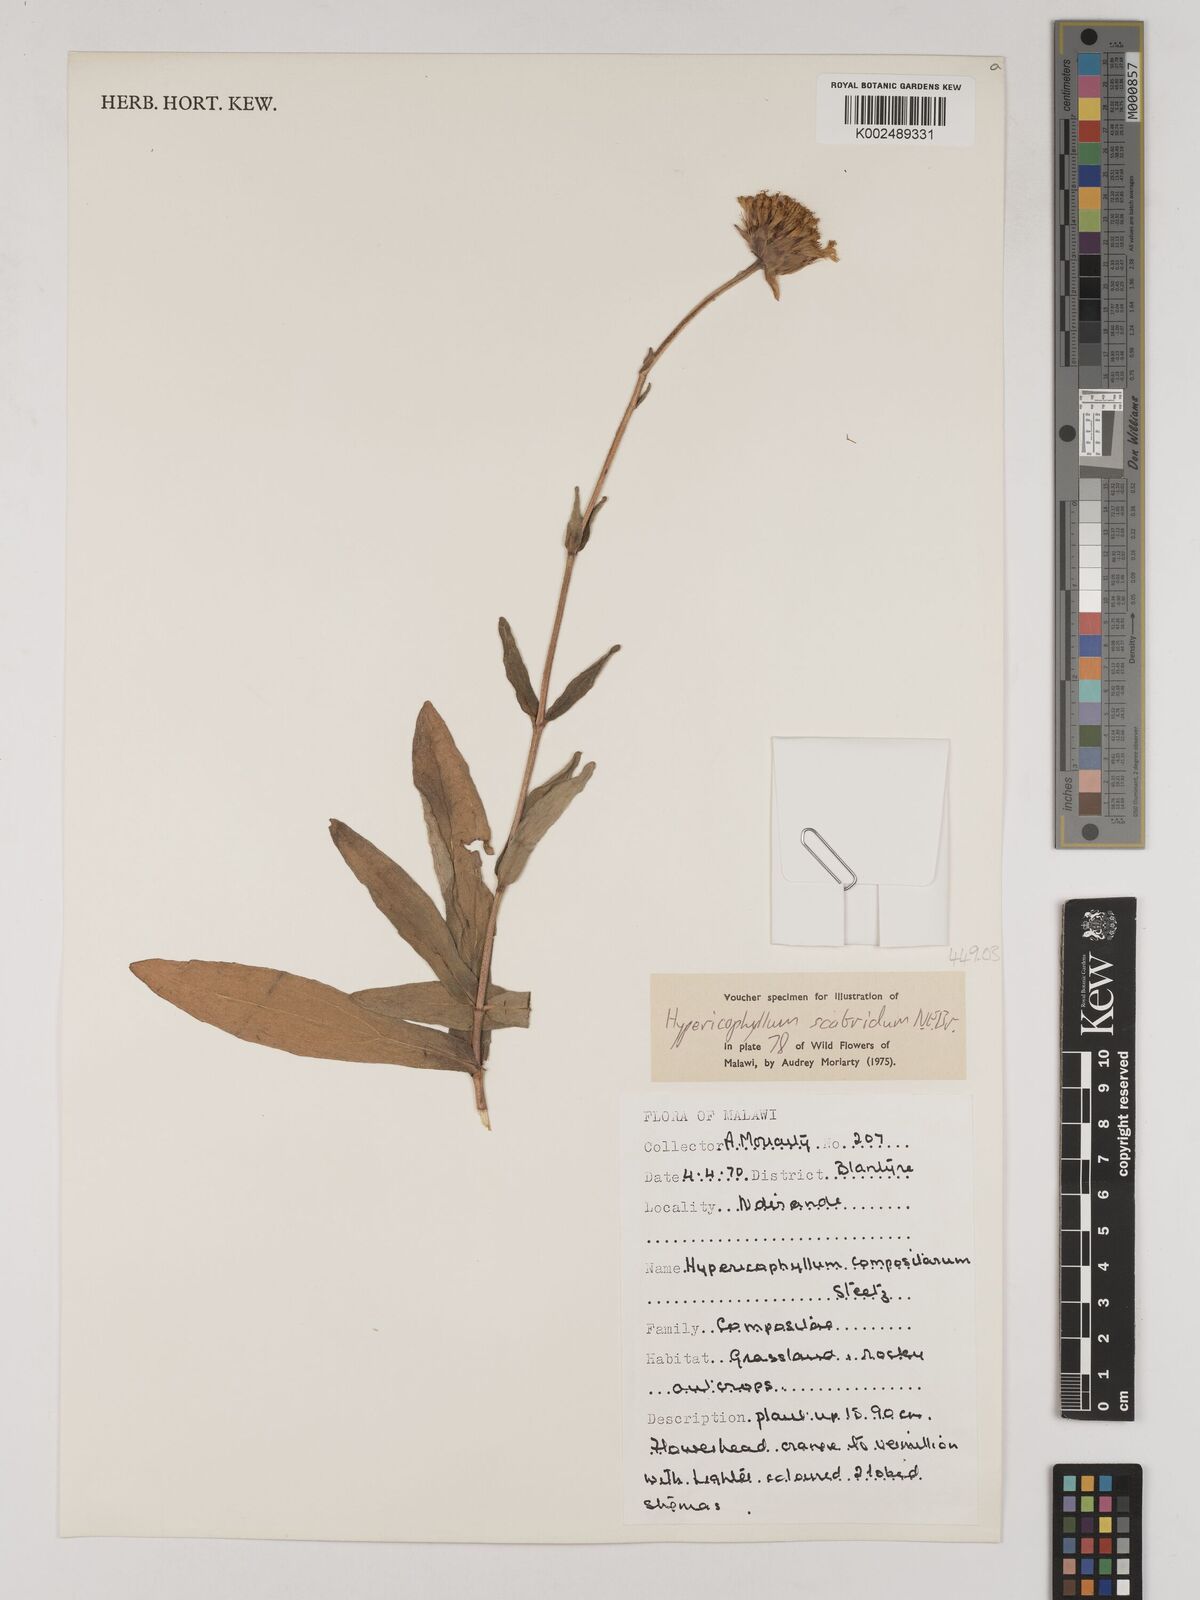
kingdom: Plantae
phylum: Tracheophyta
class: Magnoliopsida
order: Asterales
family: Asteraceae
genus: Hypericophyllum
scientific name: Hypericophyllum angolense
